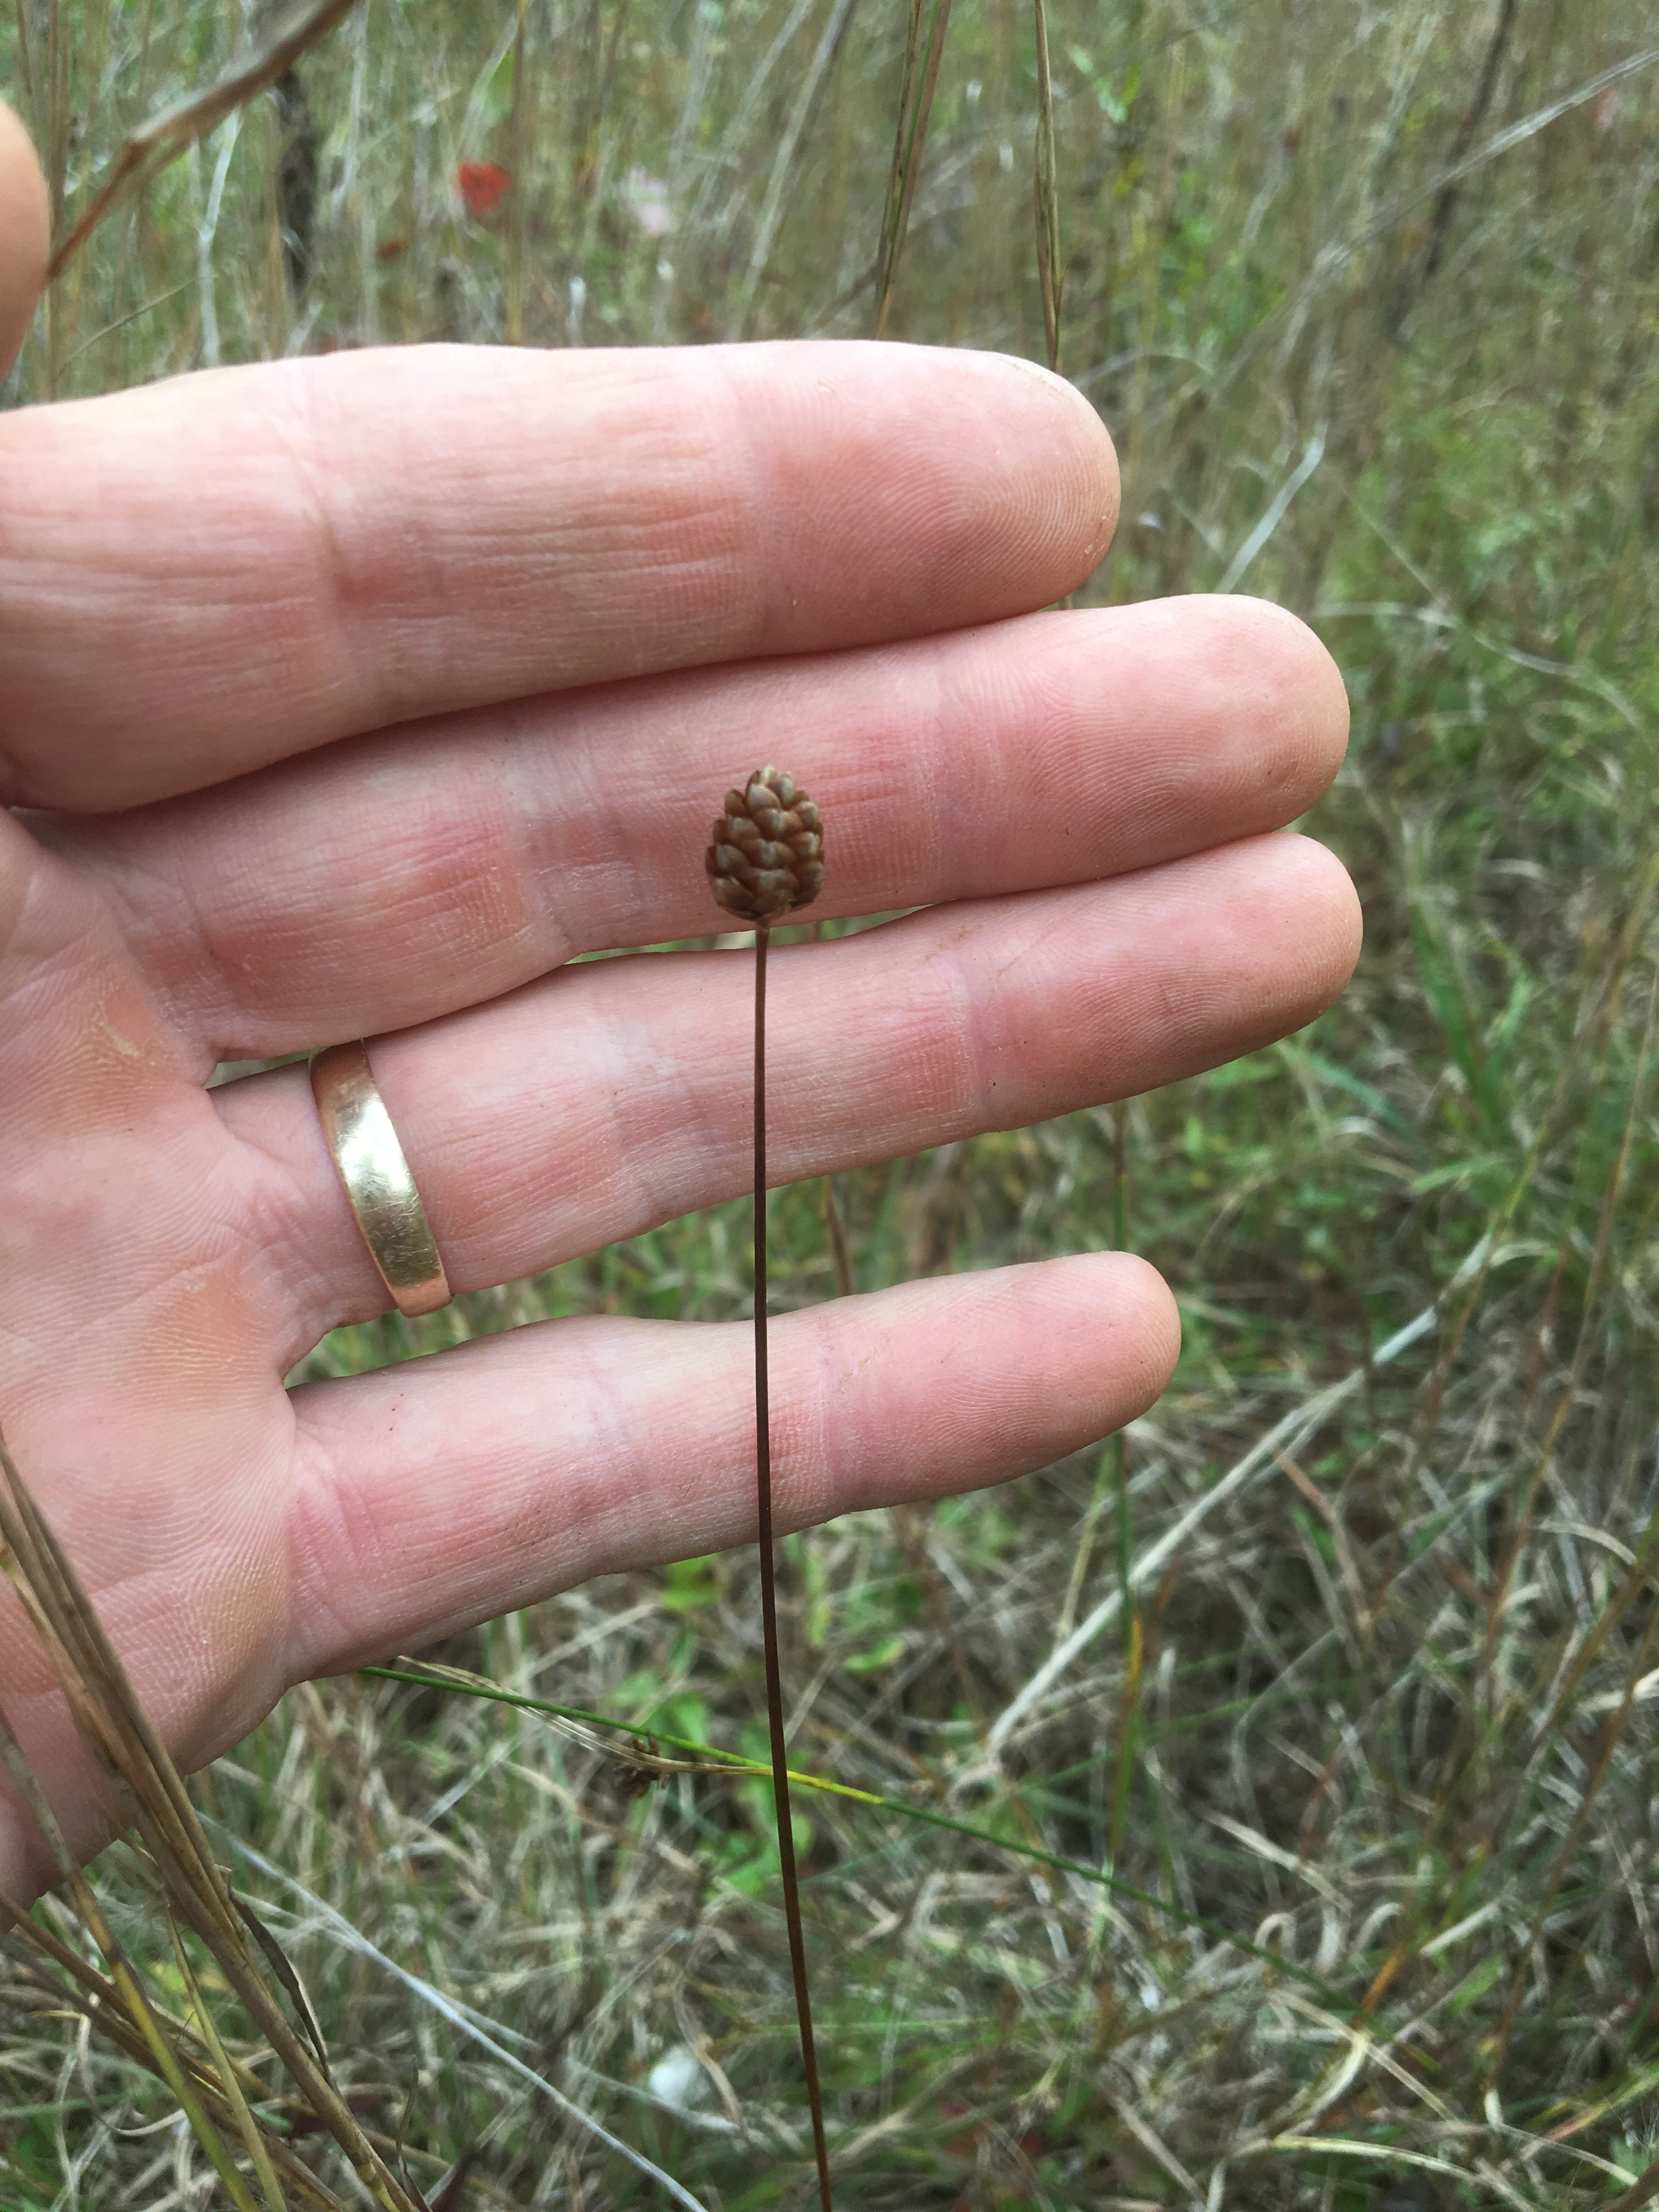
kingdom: Plantae
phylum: Tracheophyta
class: Liliopsida
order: Poales
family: Xyridaceae
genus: Xyris
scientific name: Xyris torta
